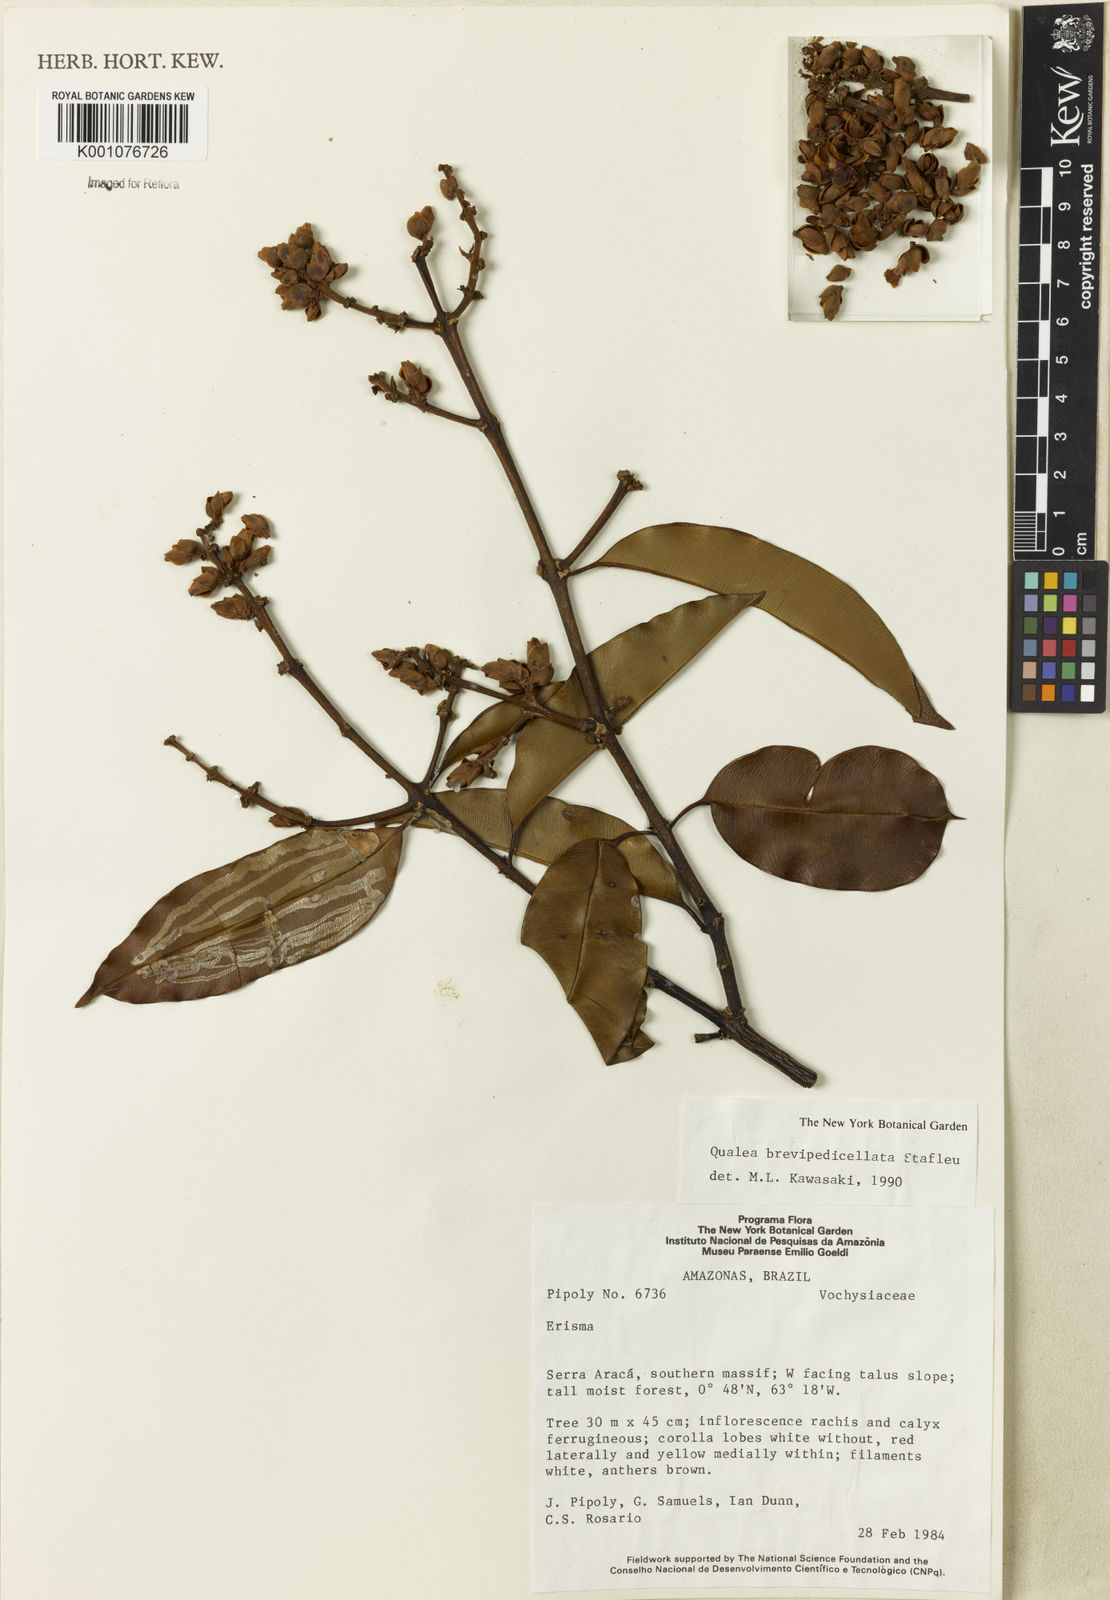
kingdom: Plantae
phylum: Tracheophyta
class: Magnoliopsida
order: Myrtales
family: Vochysiaceae
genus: Qualea
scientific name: Qualea brevipedicellata
